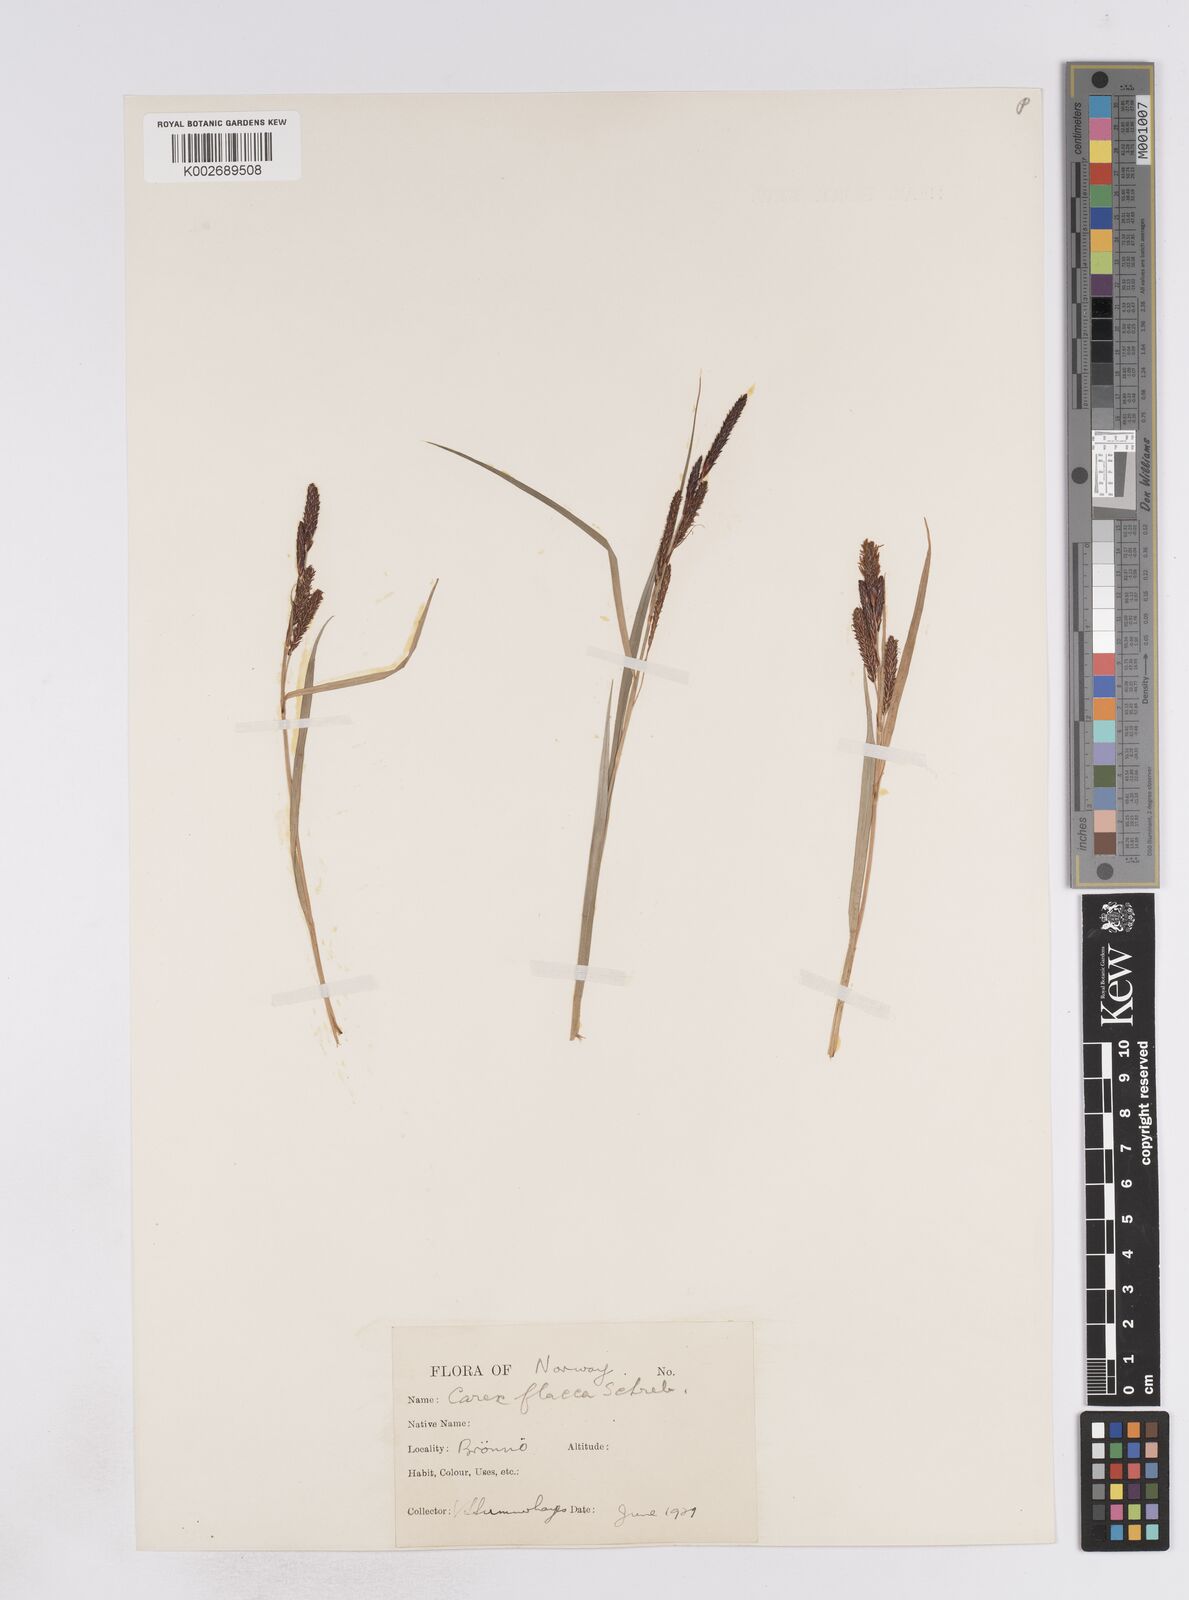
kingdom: Plantae
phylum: Tracheophyta
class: Liliopsida
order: Poales
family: Cyperaceae
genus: Carex
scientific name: Carex flacca
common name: Glaucous sedge
